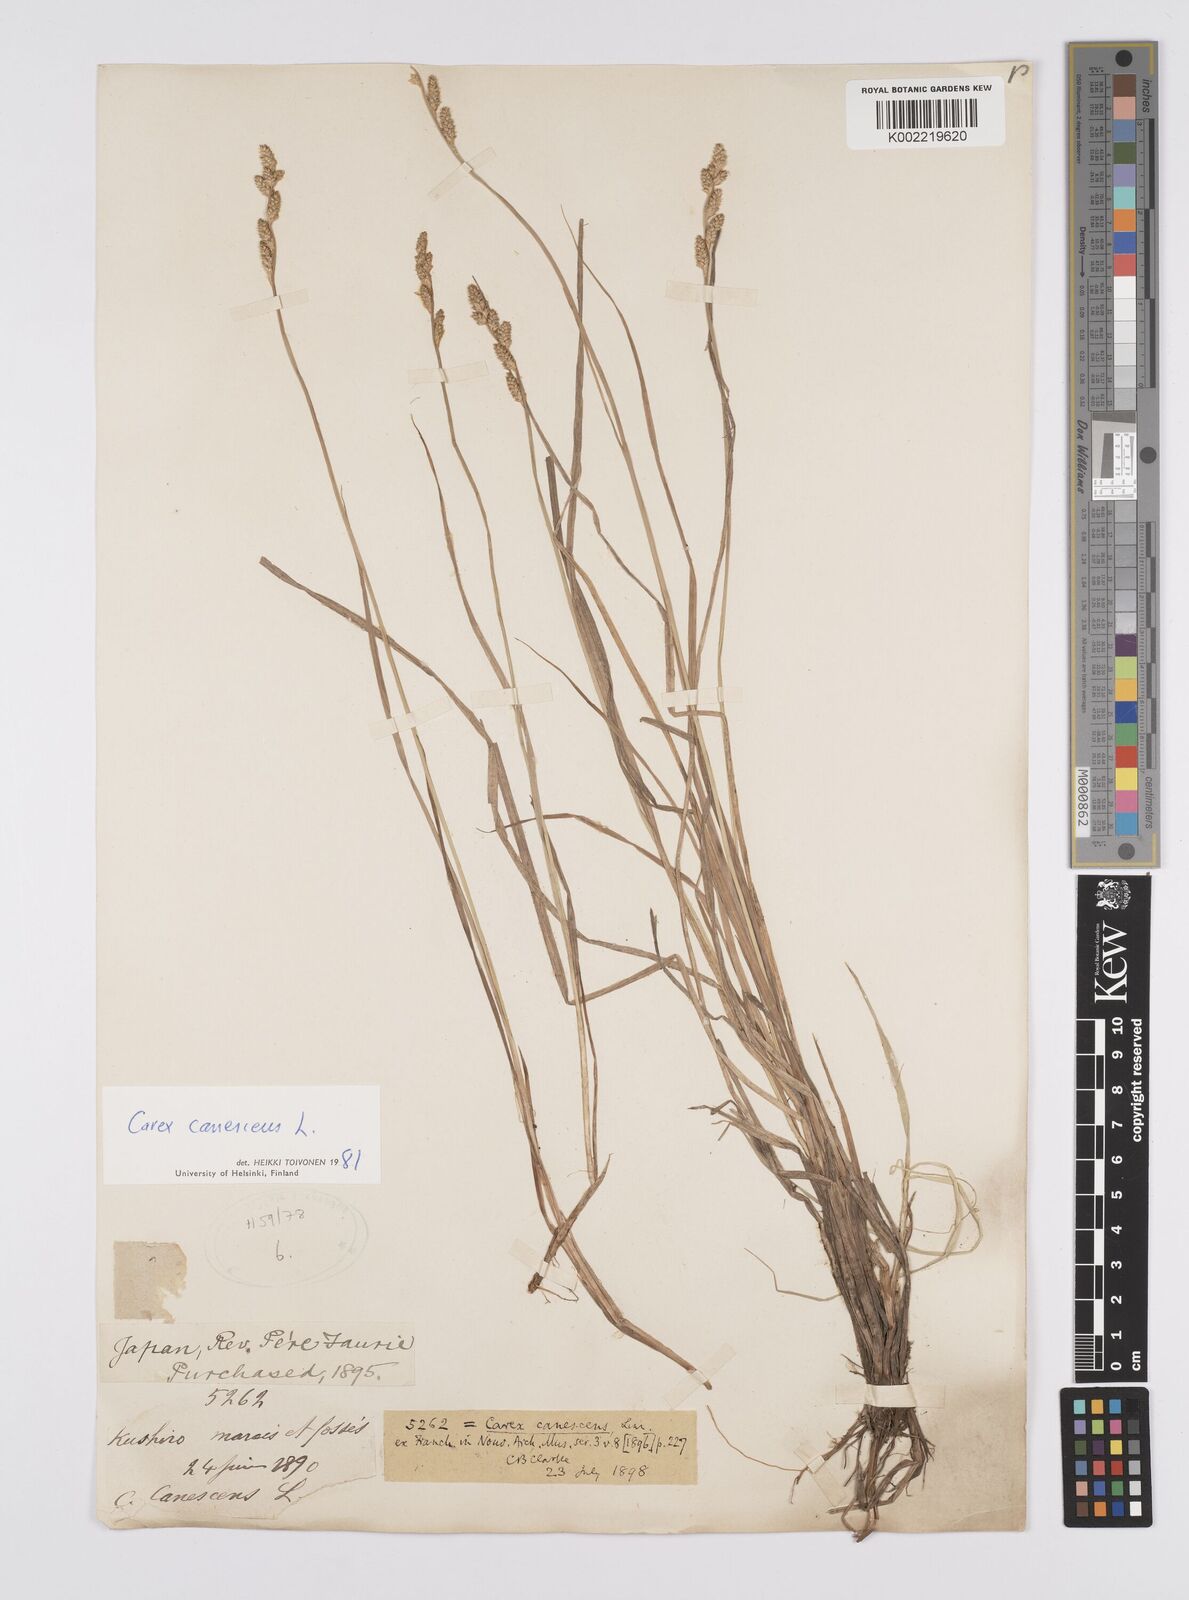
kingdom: Plantae
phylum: Tracheophyta
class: Liliopsida
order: Poales
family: Cyperaceae
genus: Carex
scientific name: Carex canescens
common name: White sedge
